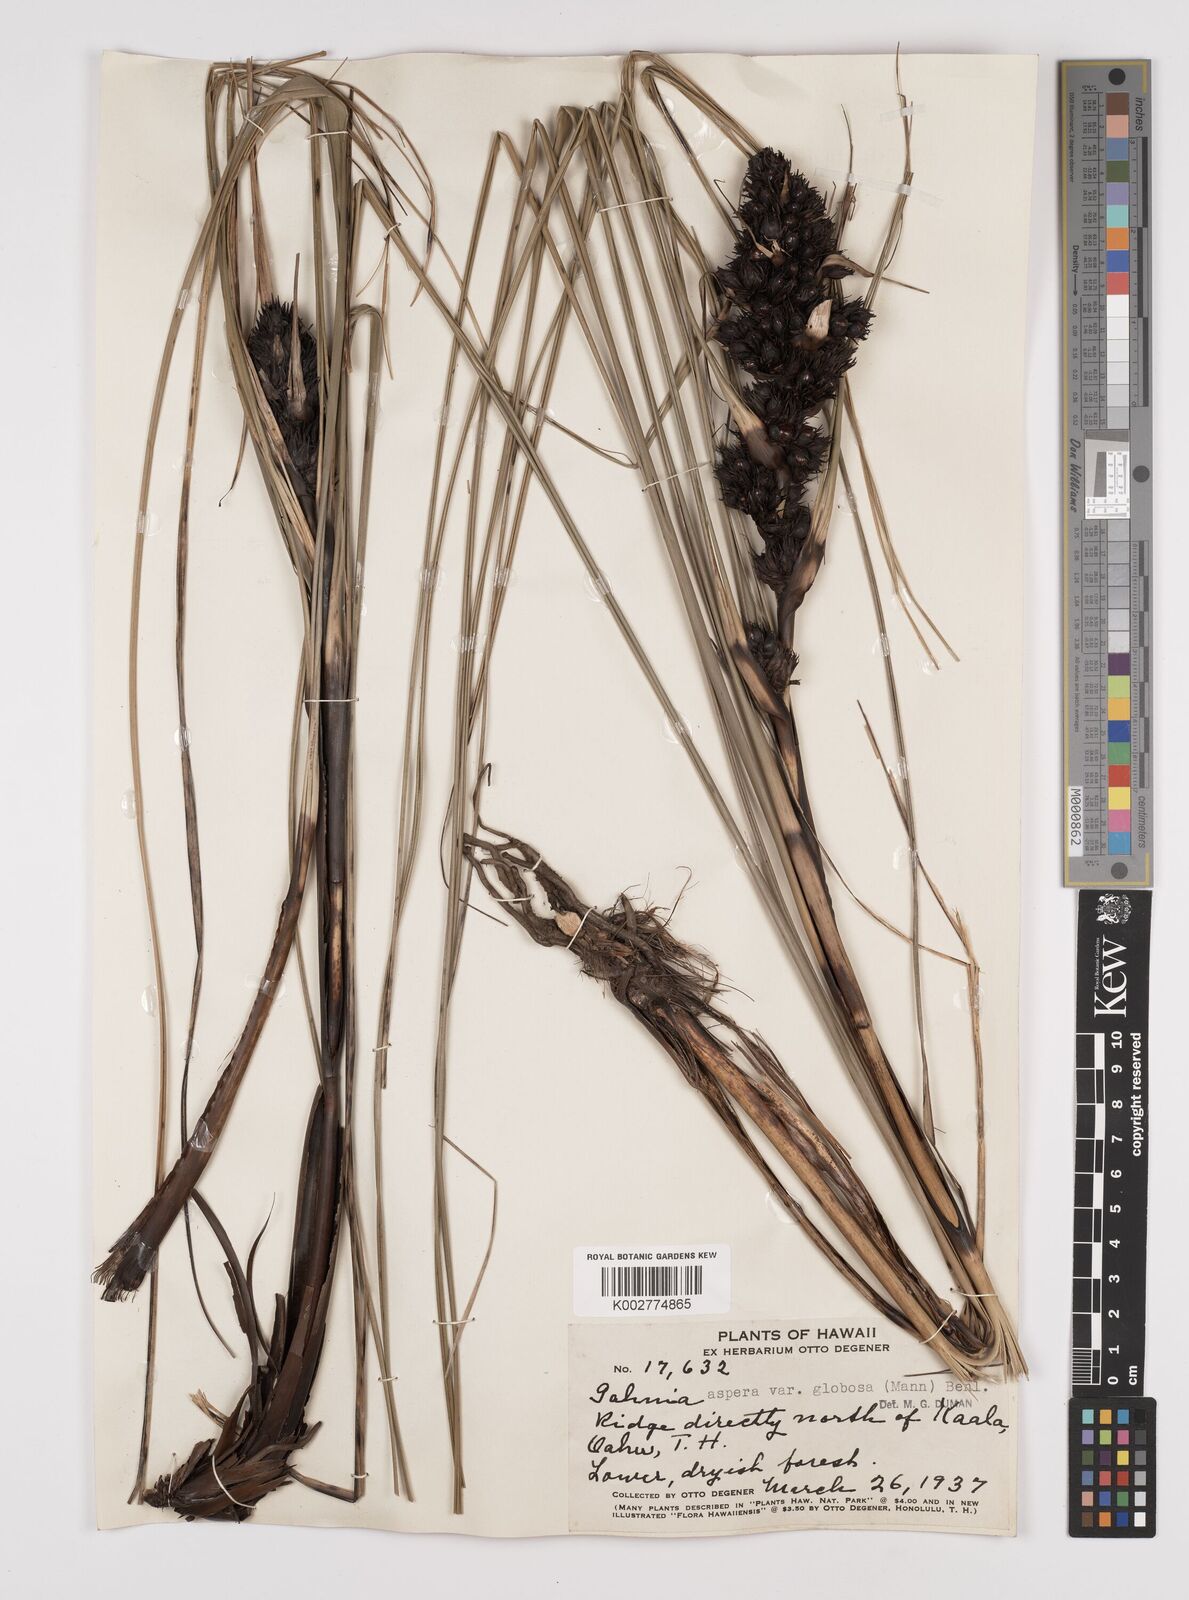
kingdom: Plantae
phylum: Tracheophyta
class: Liliopsida
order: Poales
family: Cyperaceae
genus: Gahnia
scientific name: Gahnia aspera
